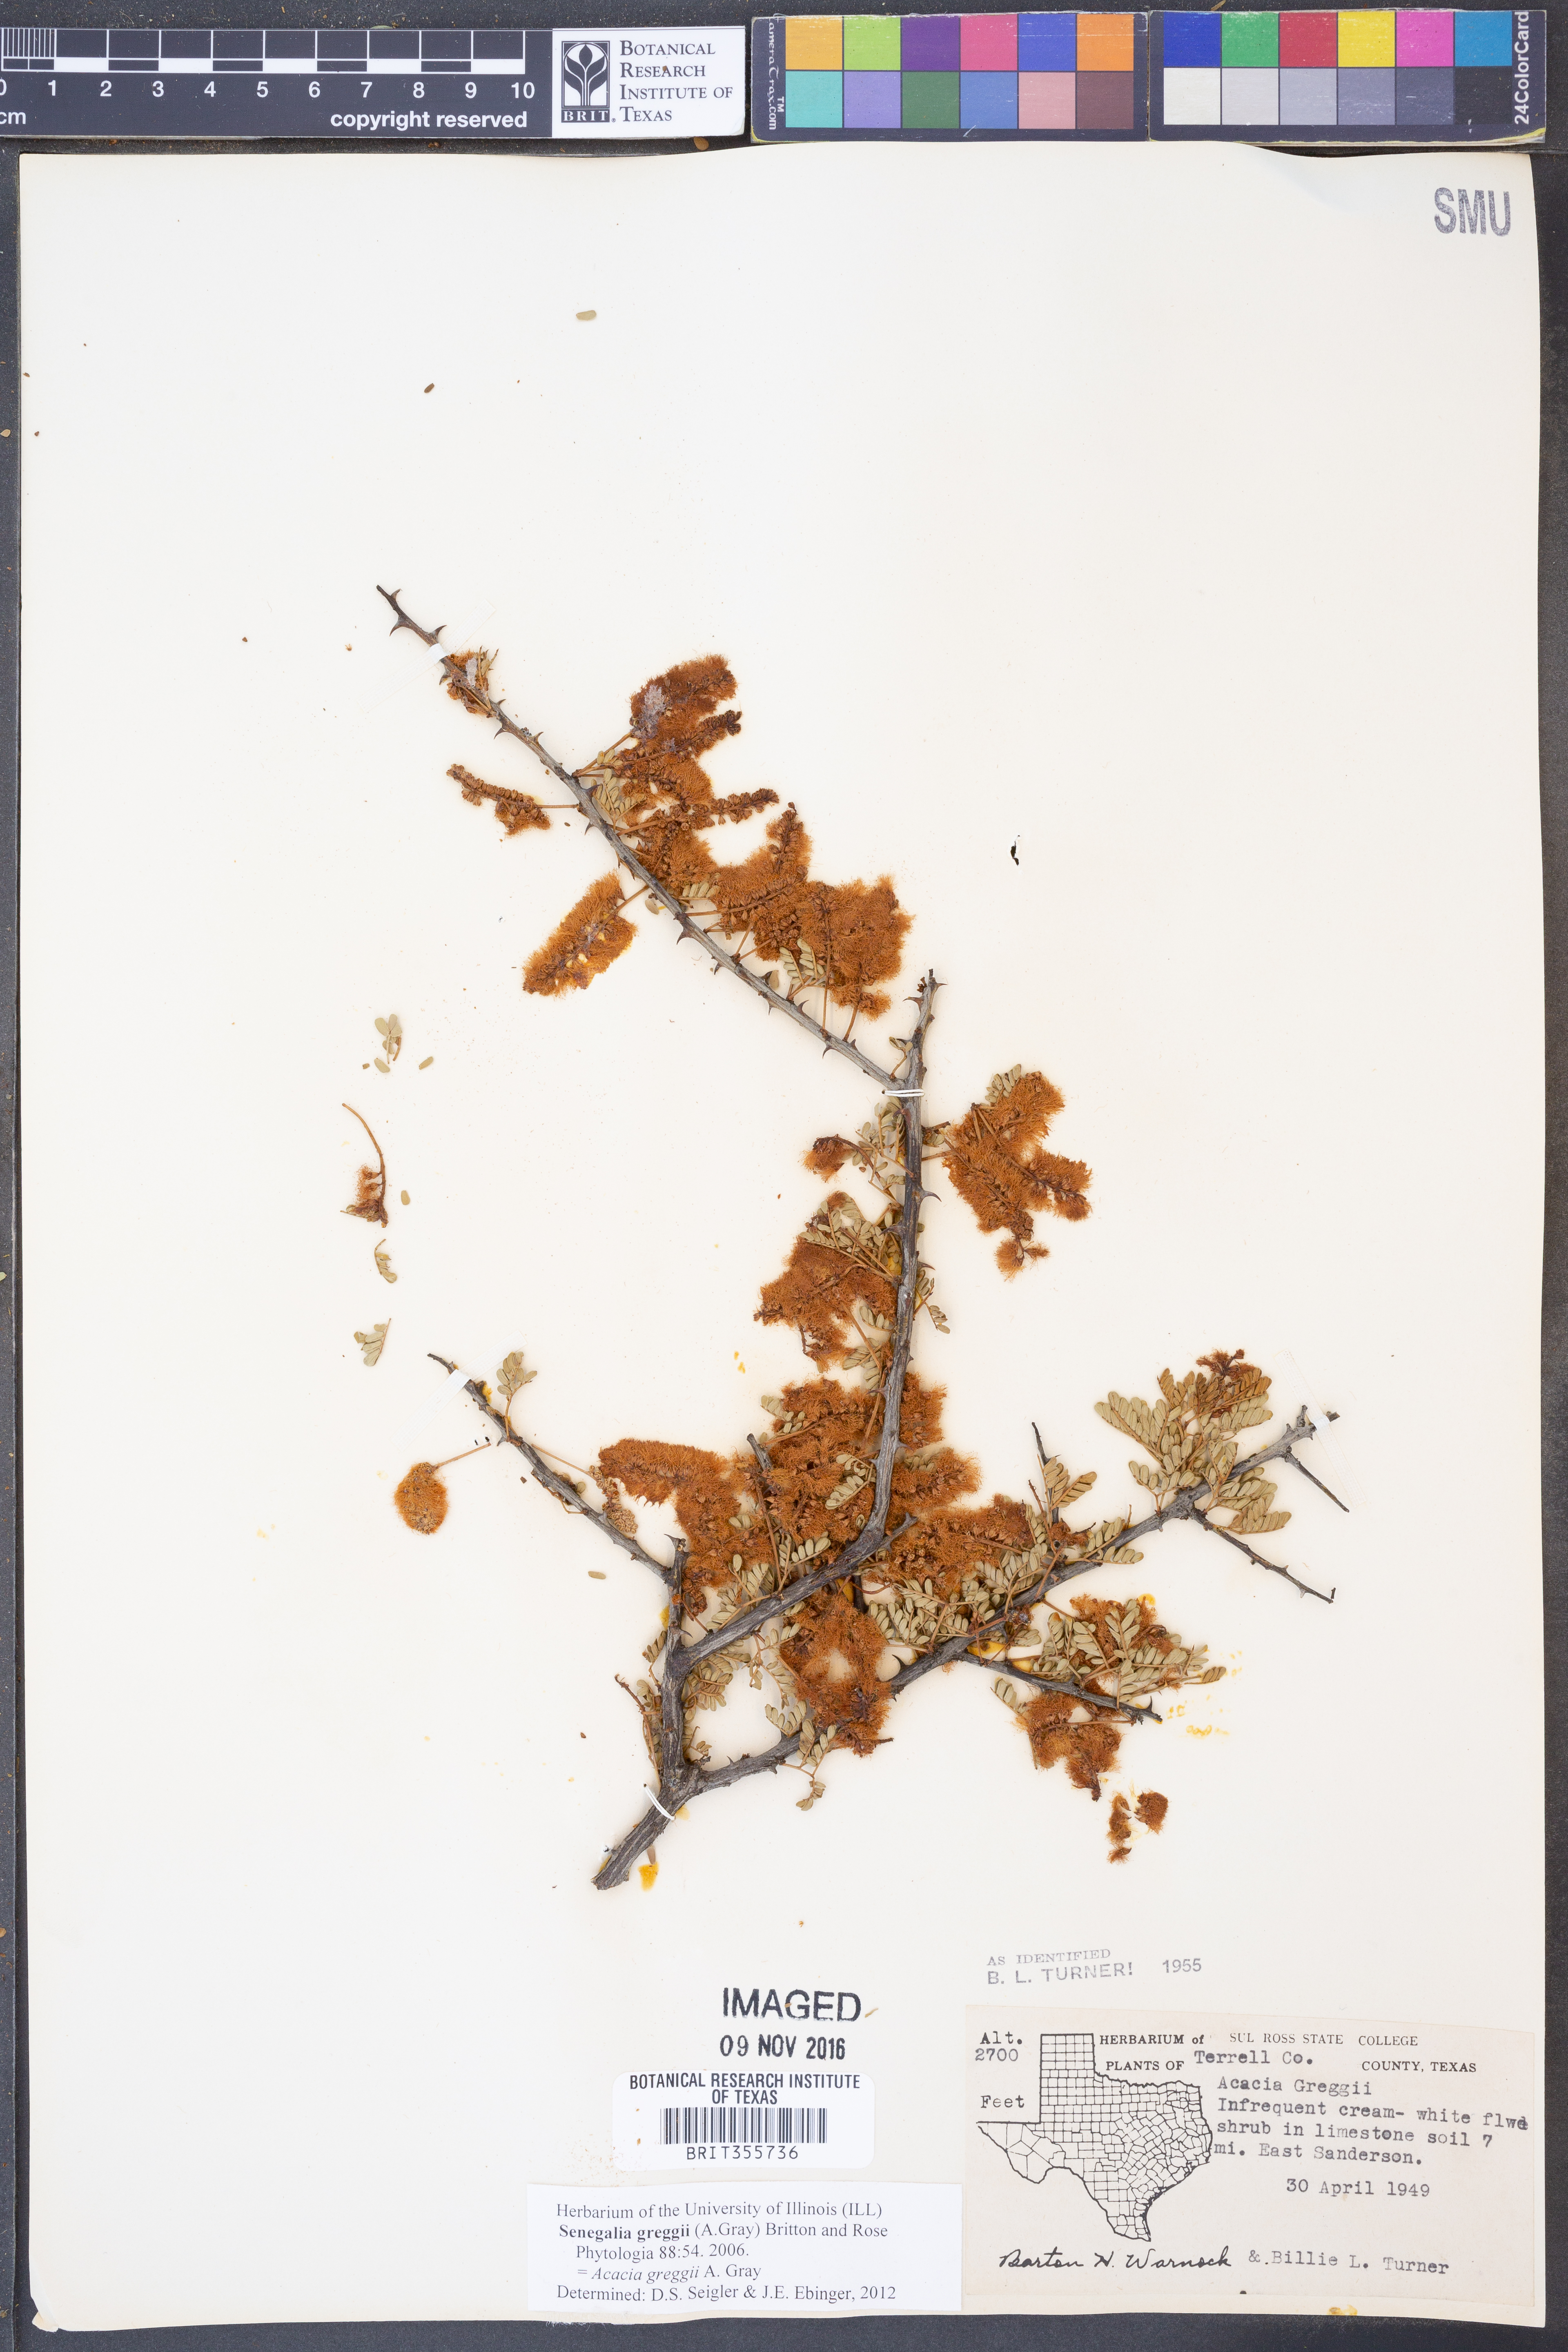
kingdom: Plantae
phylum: Tracheophyta
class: Magnoliopsida
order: Fabales
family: Fabaceae
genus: Senegalia
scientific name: Senegalia greggii
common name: Texas-mimosa
